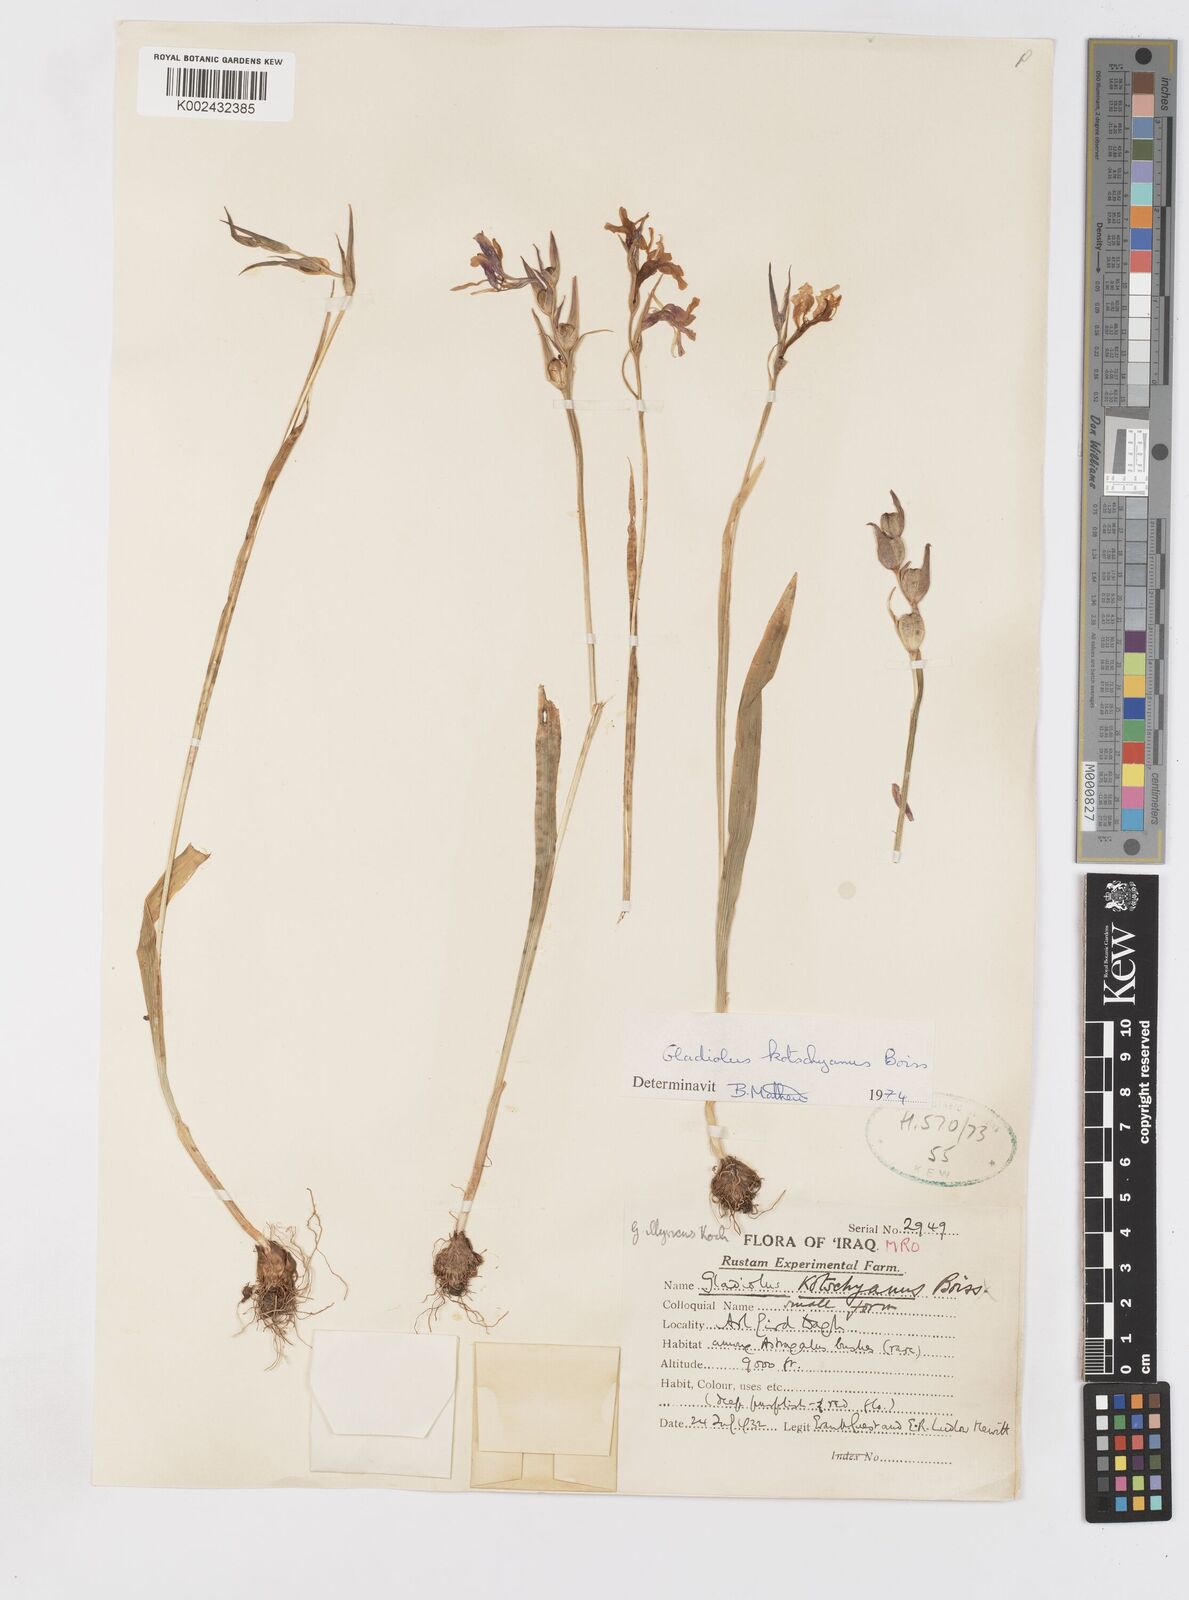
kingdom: Plantae
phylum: Tracheophyta
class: Liliopsida
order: Asparagales
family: Iridaceae
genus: Gladiolus
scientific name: Gladiolus kotschyanus
